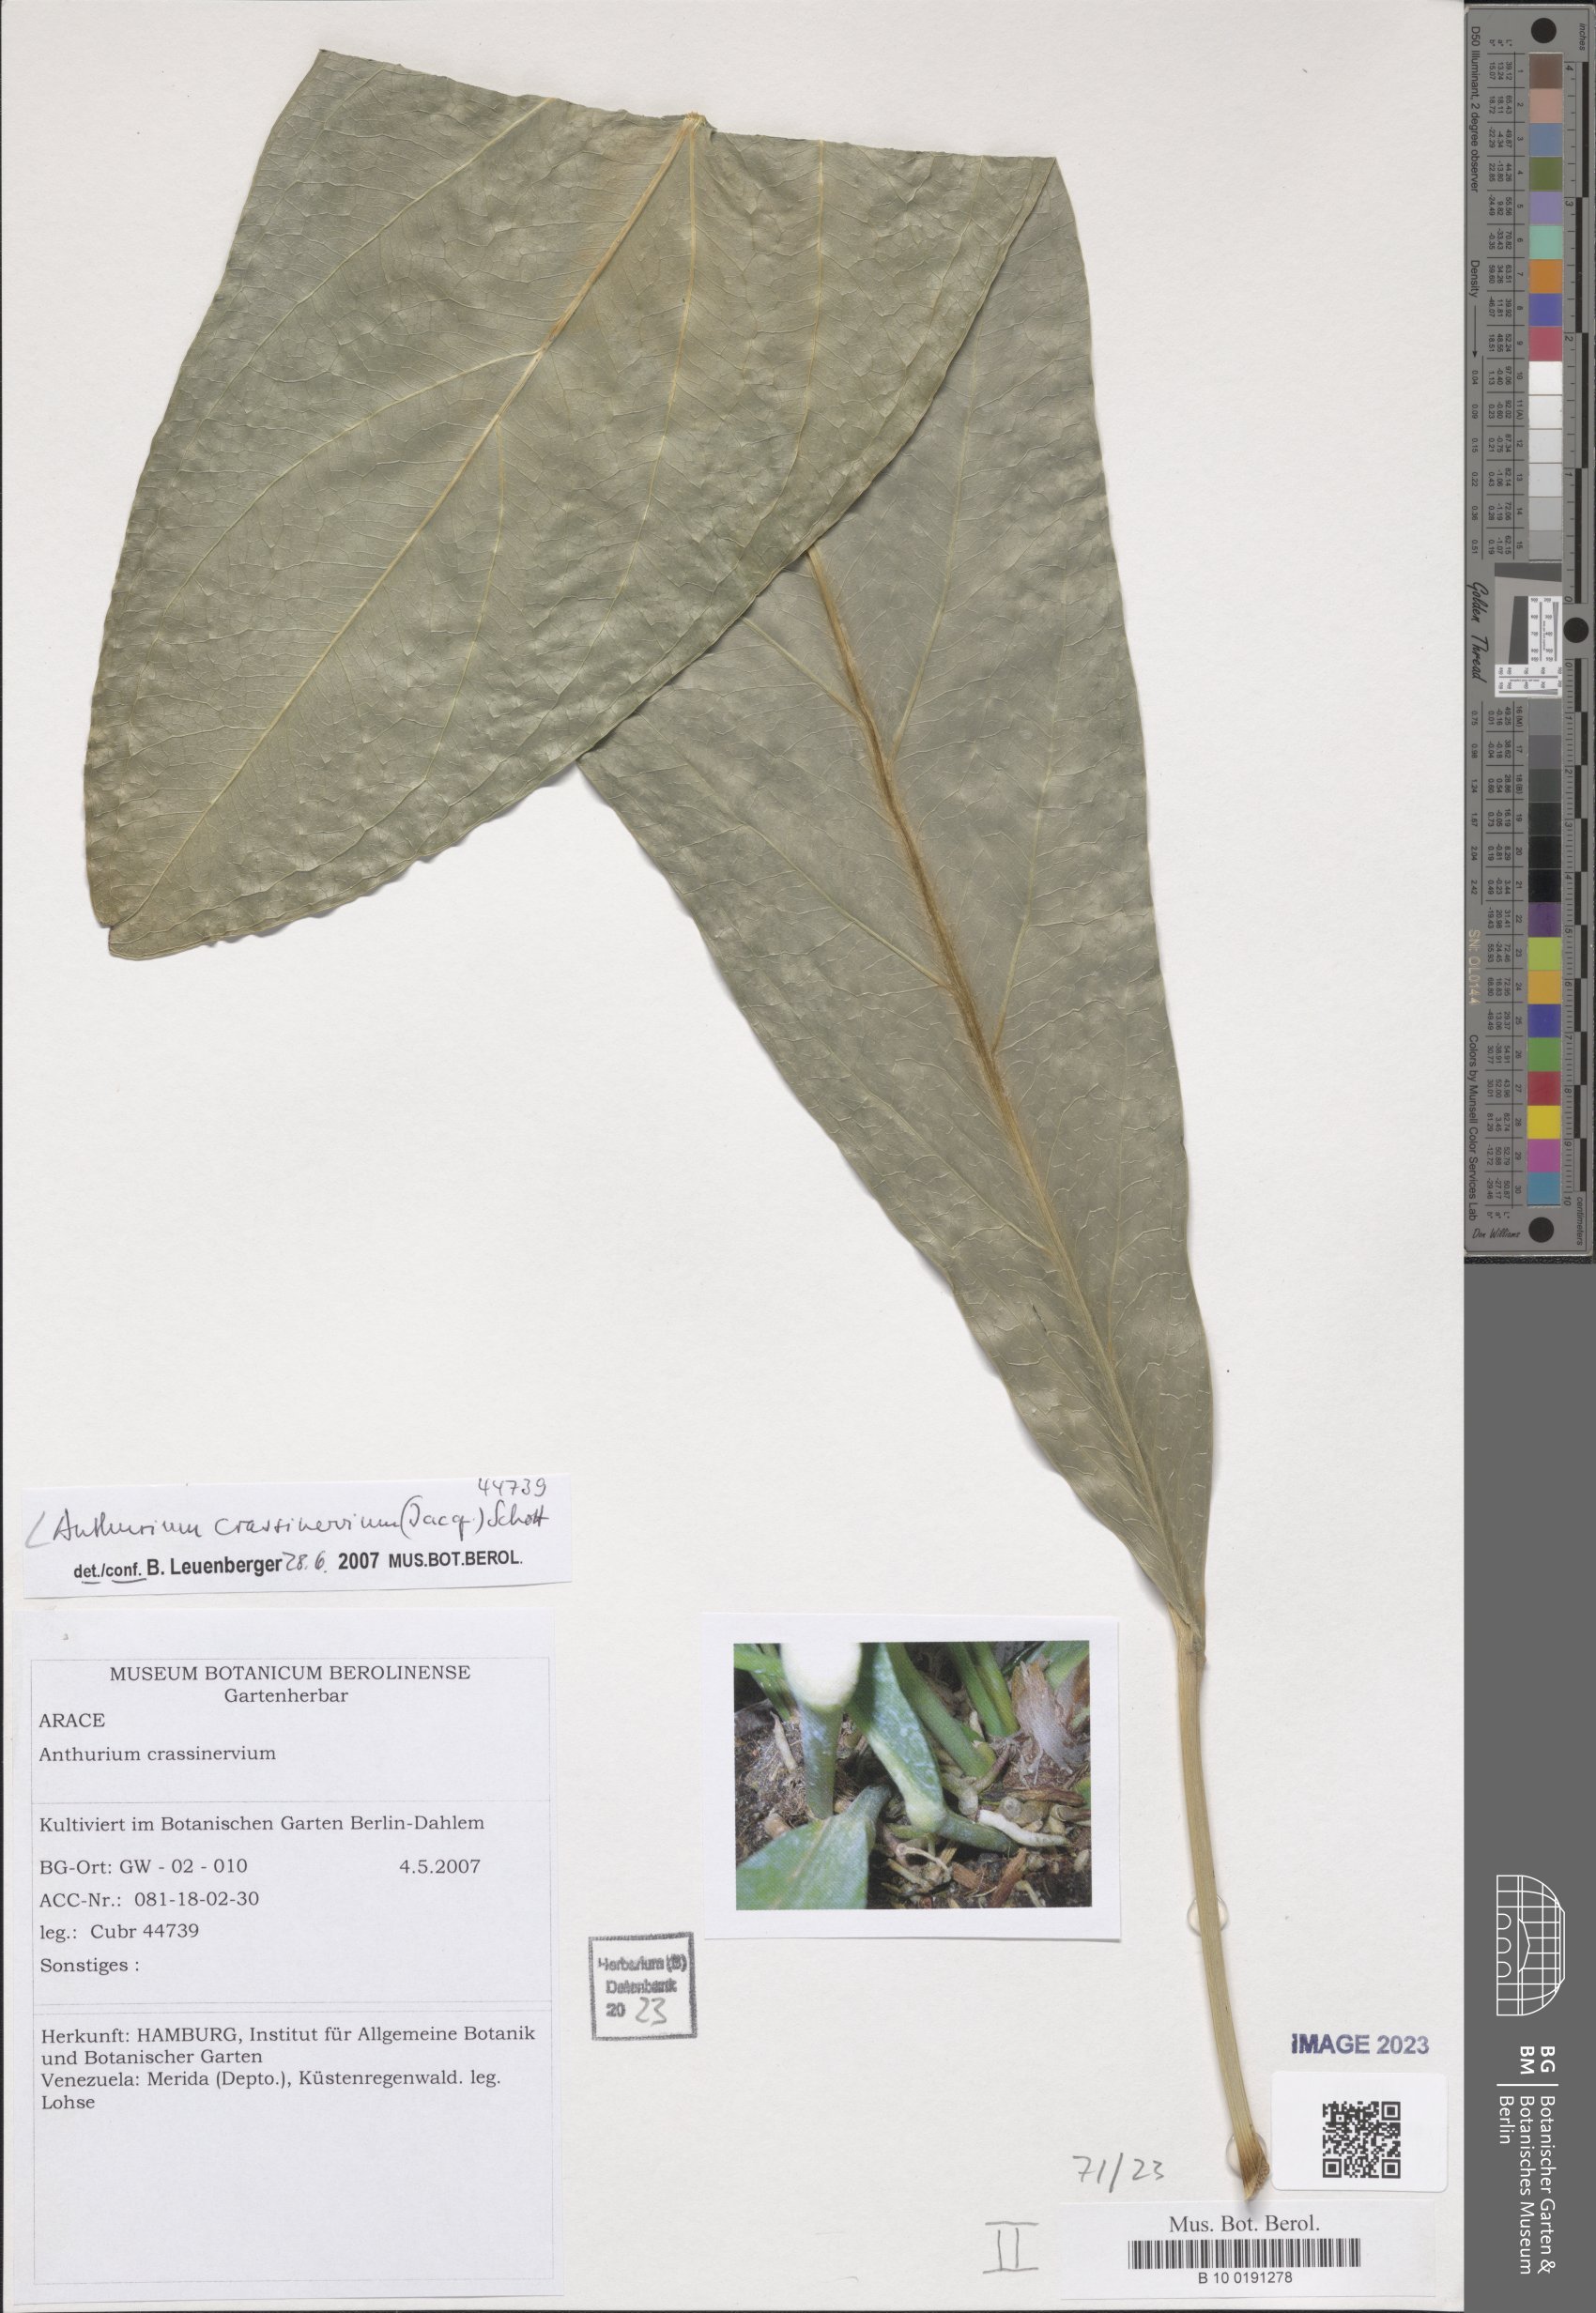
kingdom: Plantae
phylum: Tracheophyta
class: Liliopsida
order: Alismatales
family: Araceae
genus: Anthurium
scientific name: Anthurium crassinervium
